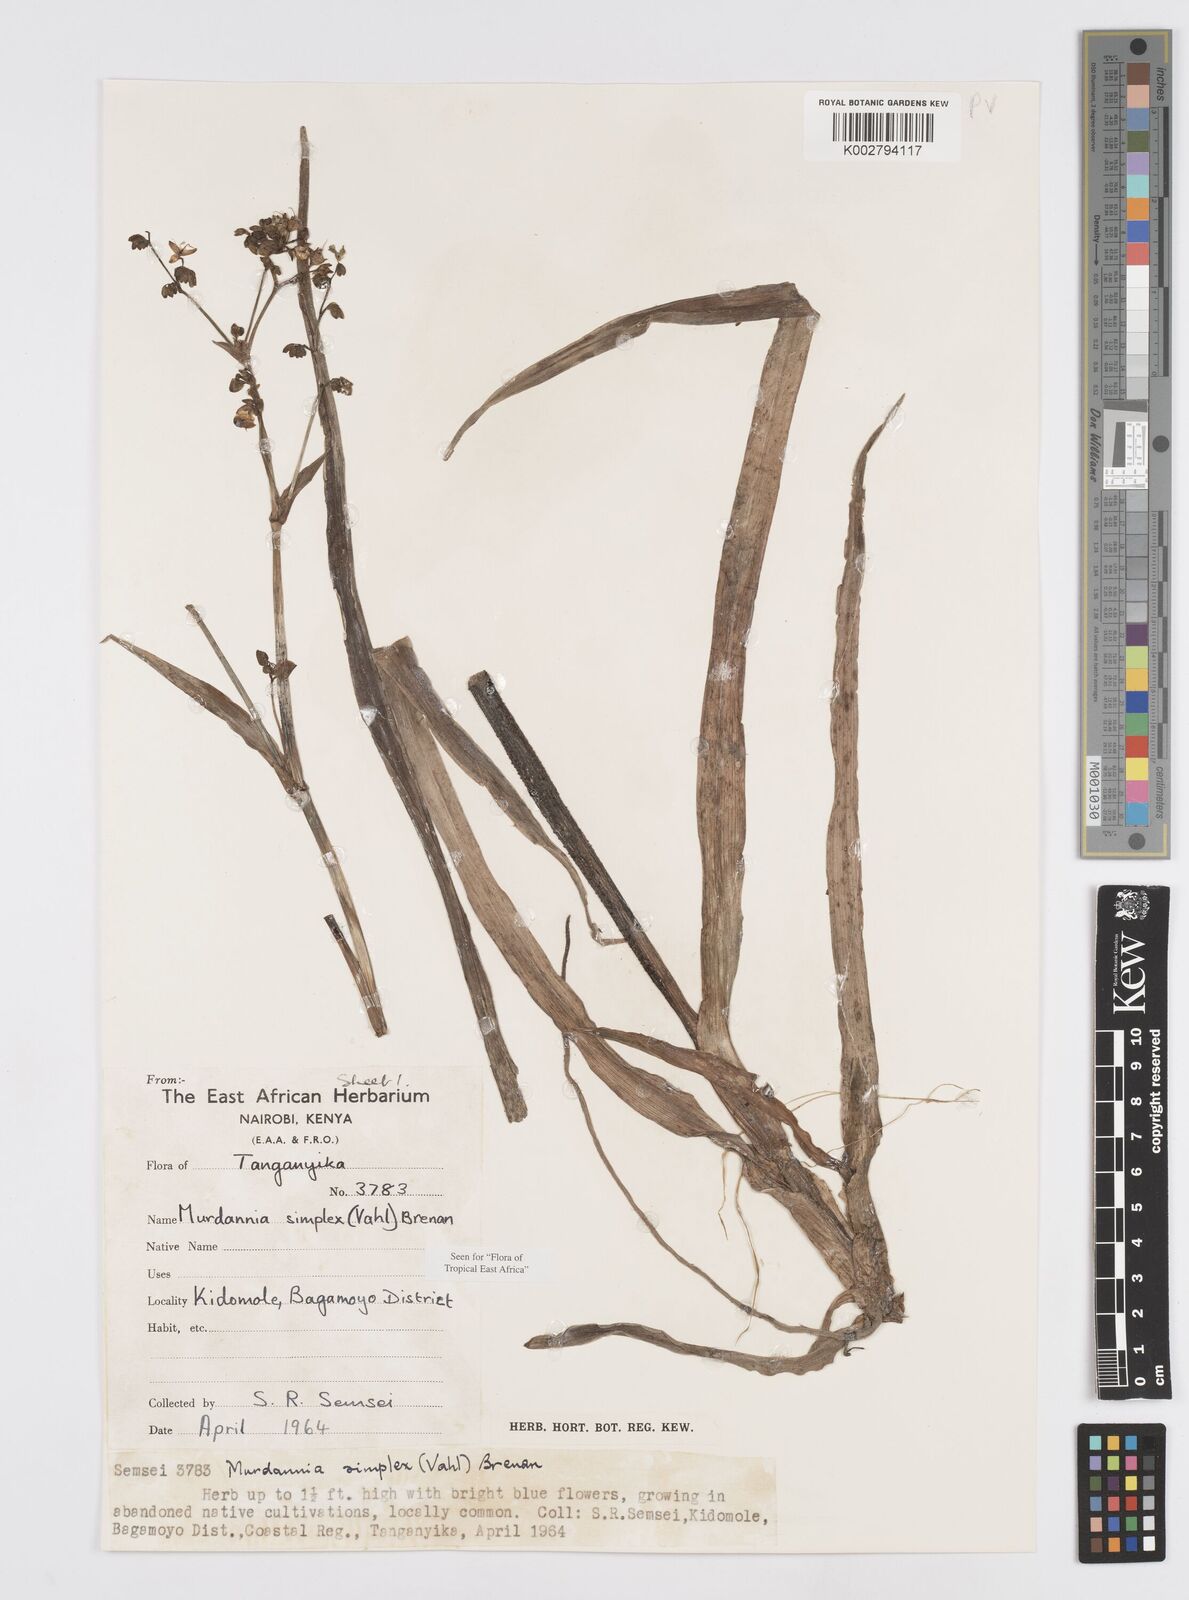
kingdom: Plantae
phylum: Tracheophyta
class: Liliopsida
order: Commelinales
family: Commelinaceae
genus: Murdannia
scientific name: Murdannia simplex
